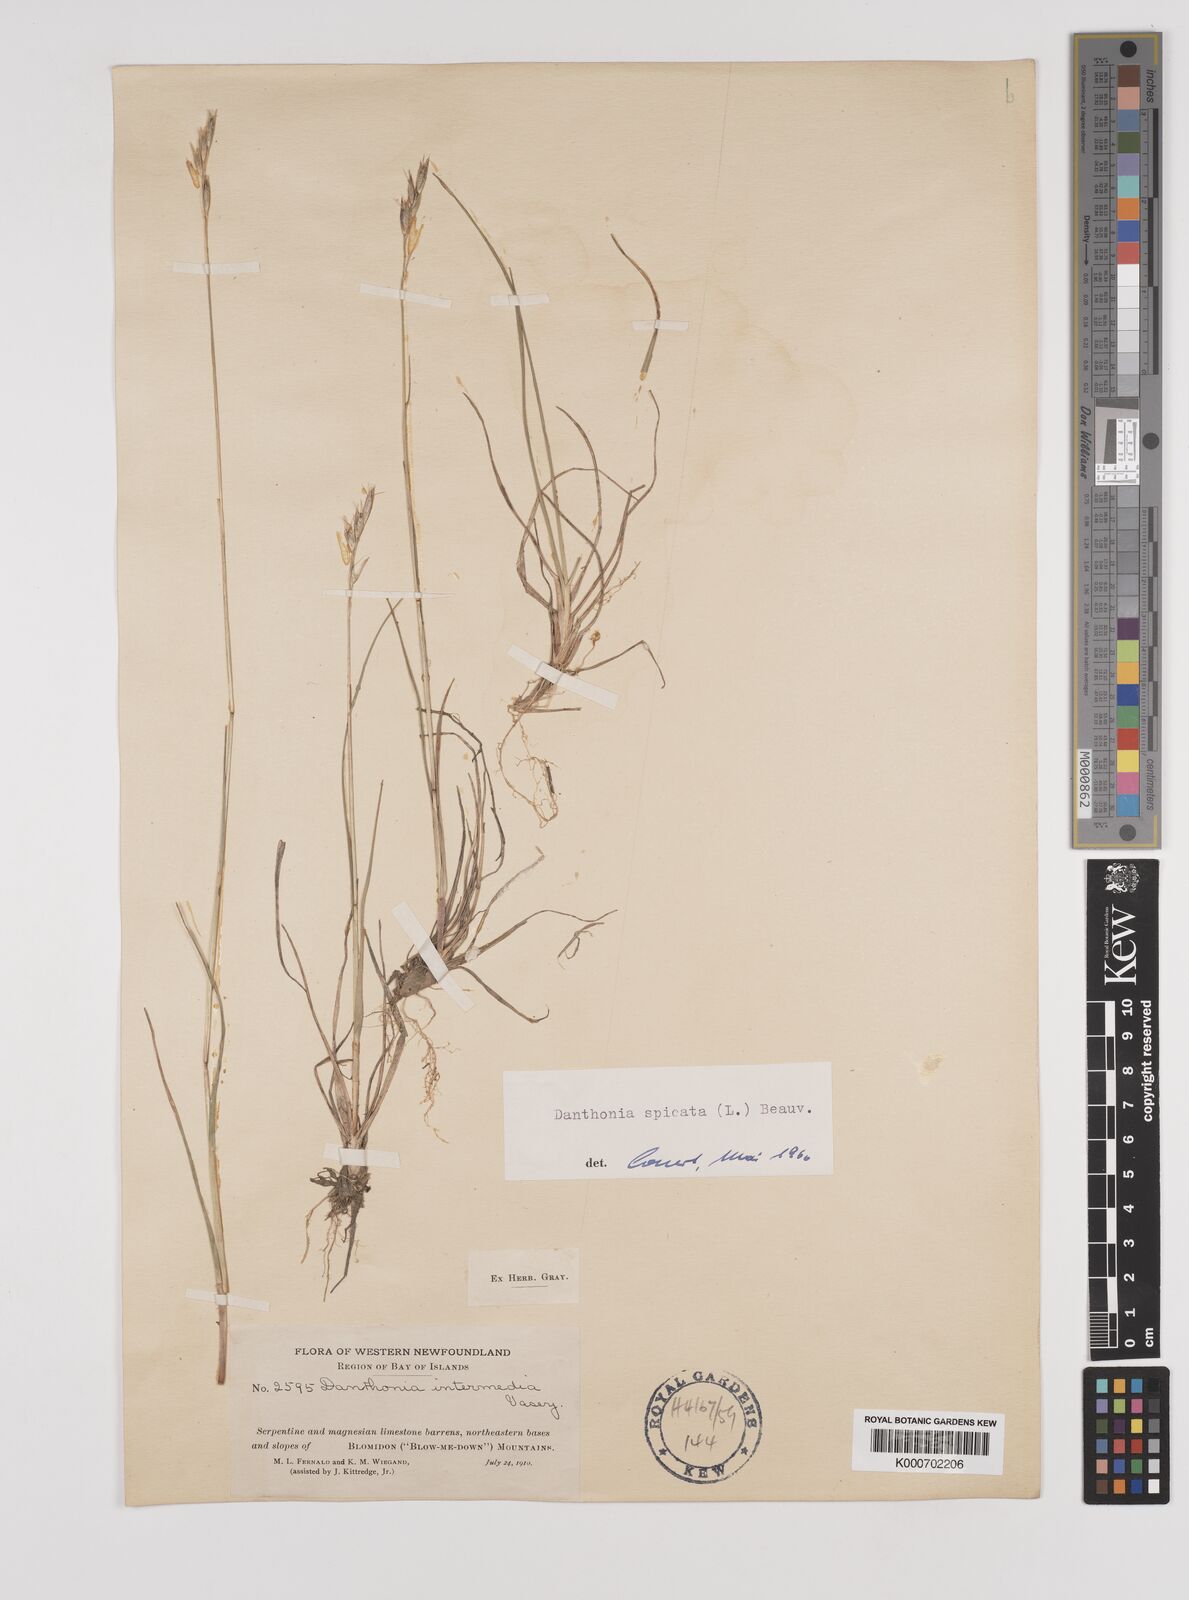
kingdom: Plantae
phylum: Tracheophyta
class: Liliopsida
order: Poales
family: Poaceae
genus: Danthonia
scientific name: Danthonia spicata
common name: Common wild oatgrass
